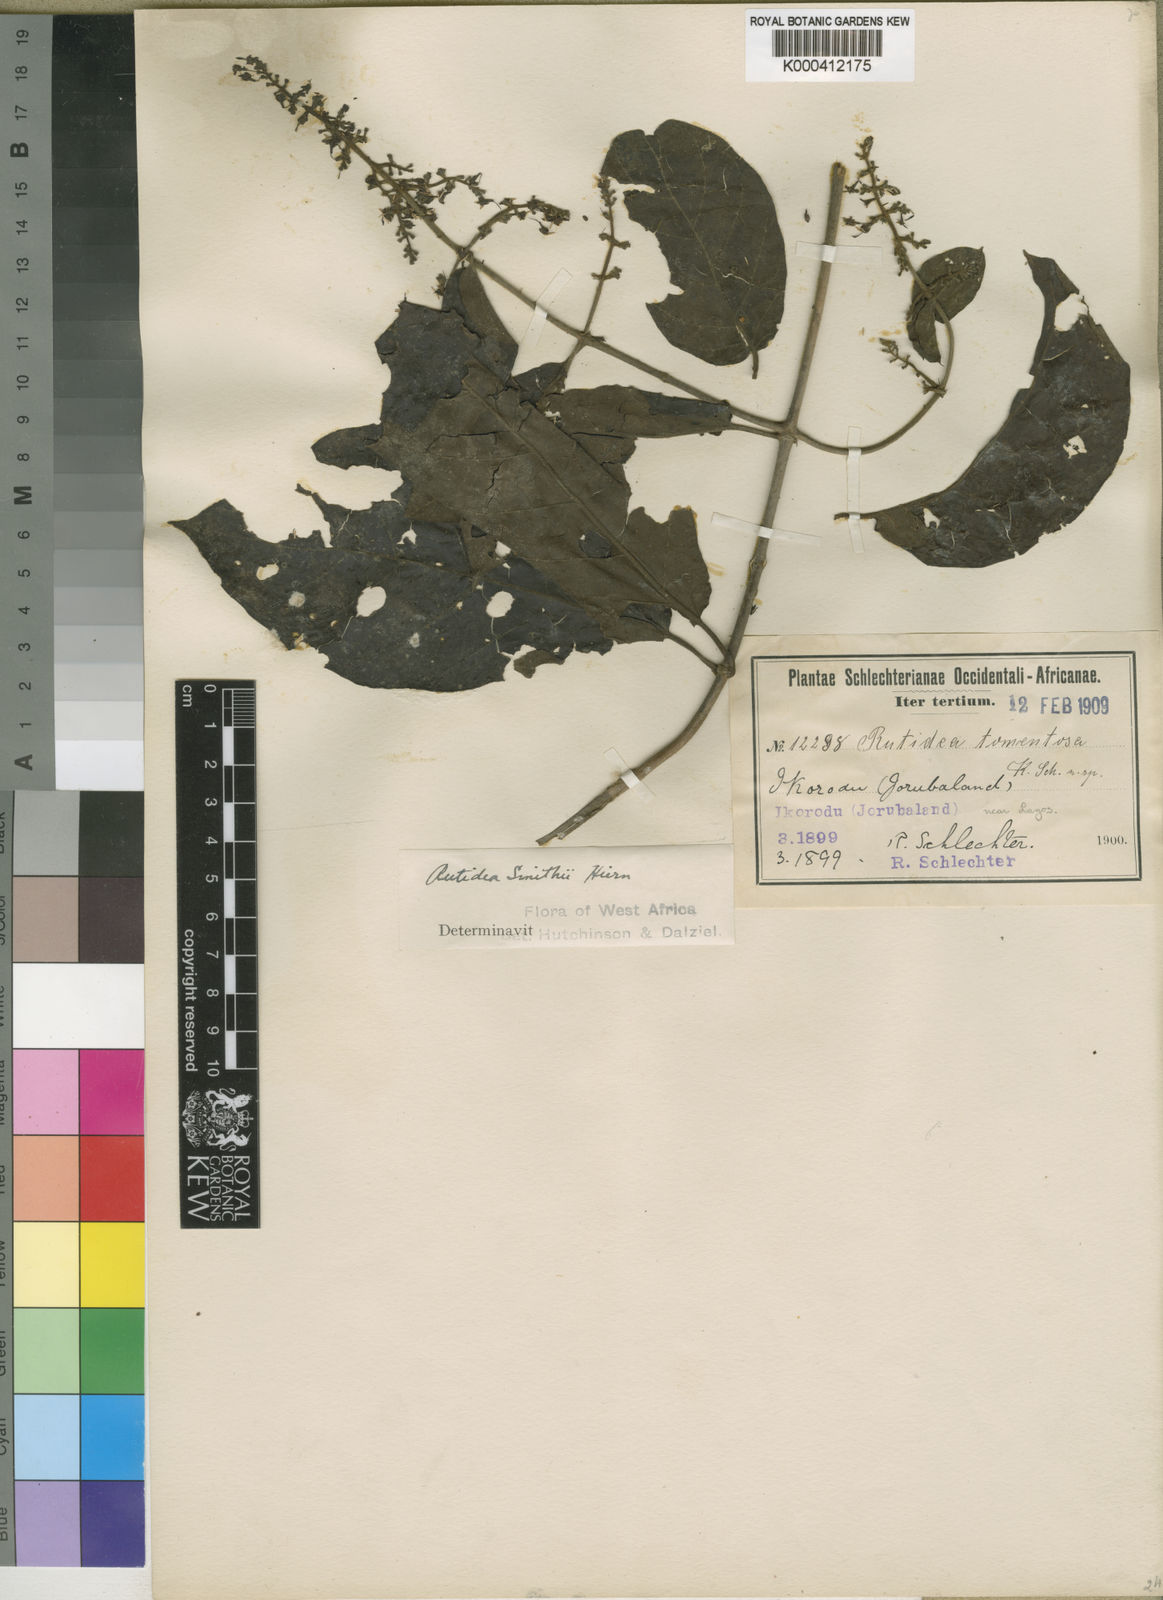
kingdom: Plantae
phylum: Tracheophyta
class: Magnoliopsida
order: Gentianales
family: Rubiaceae
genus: Rutidea
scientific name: Rutidea smithii
